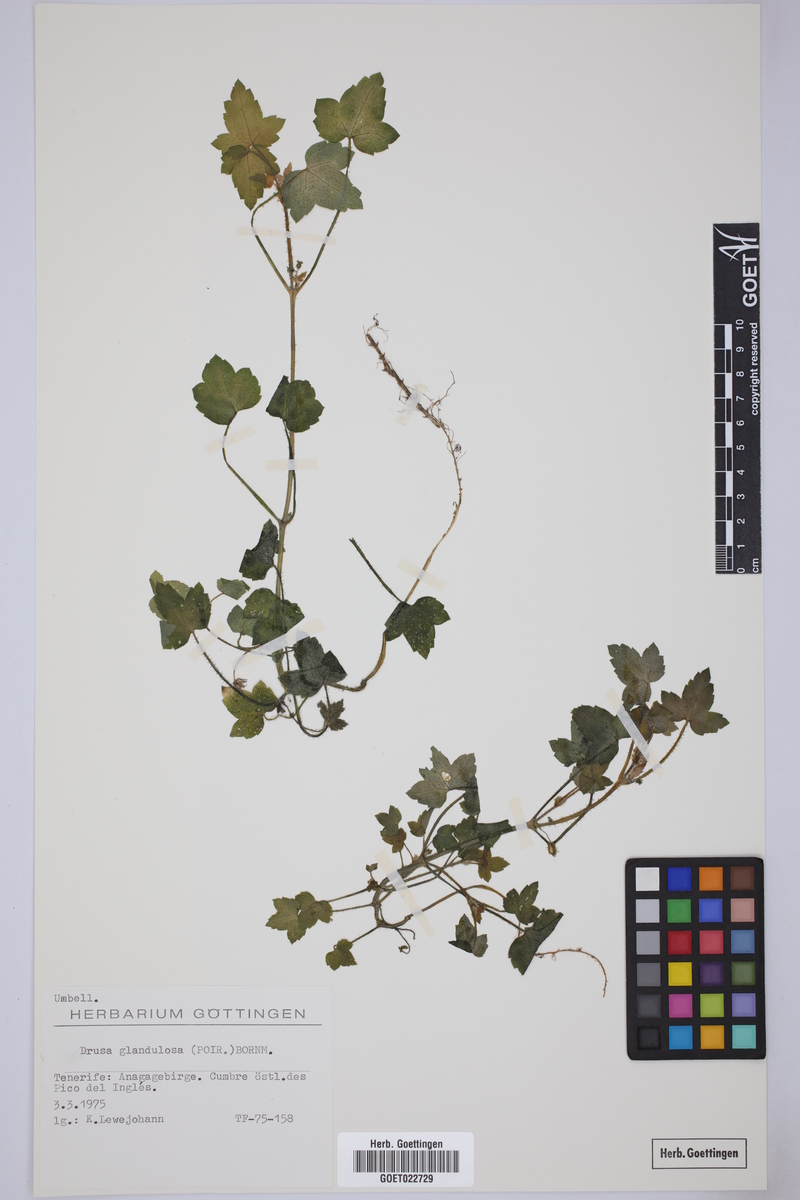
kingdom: Plantae
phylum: Tracheophyta
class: Magnoliopsida
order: Apiales
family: Apiaceae
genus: Drusa
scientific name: Drusa glandulosa
